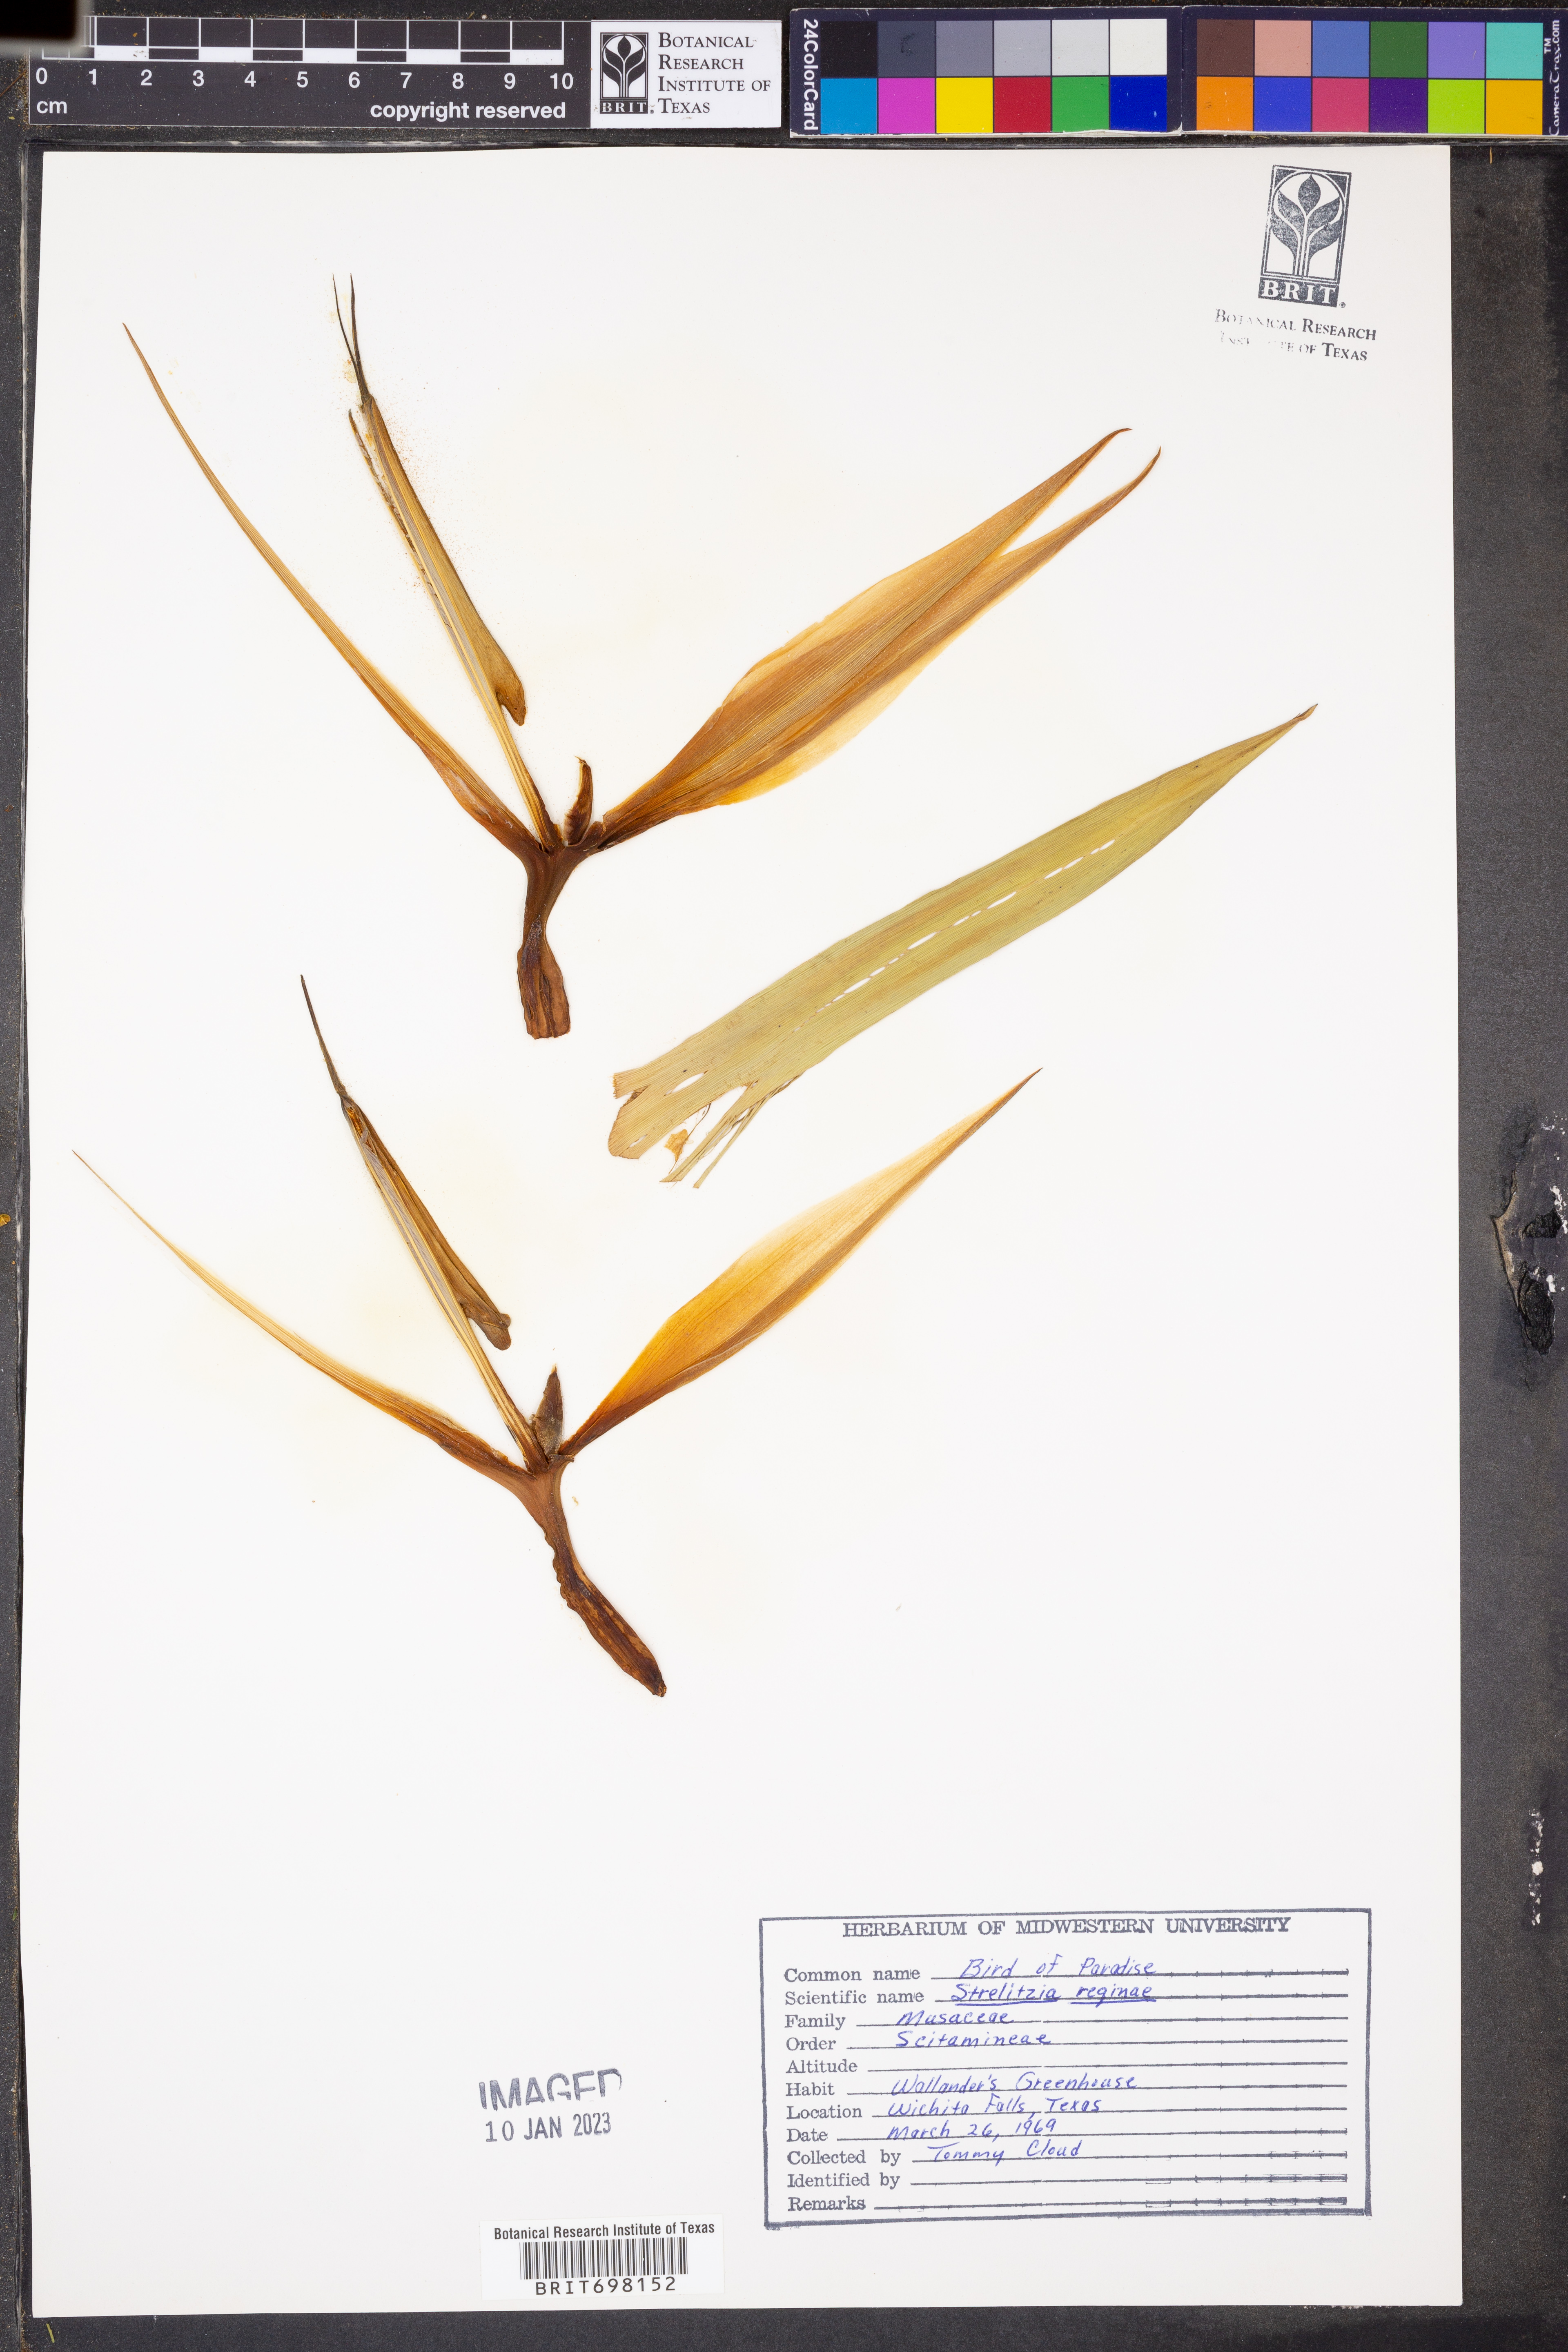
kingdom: Plantae
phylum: Tracheophyta
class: Liliopsida
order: Zingiberales
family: Strelitziaceae
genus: Strelitzia
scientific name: Strelitzia reginae
